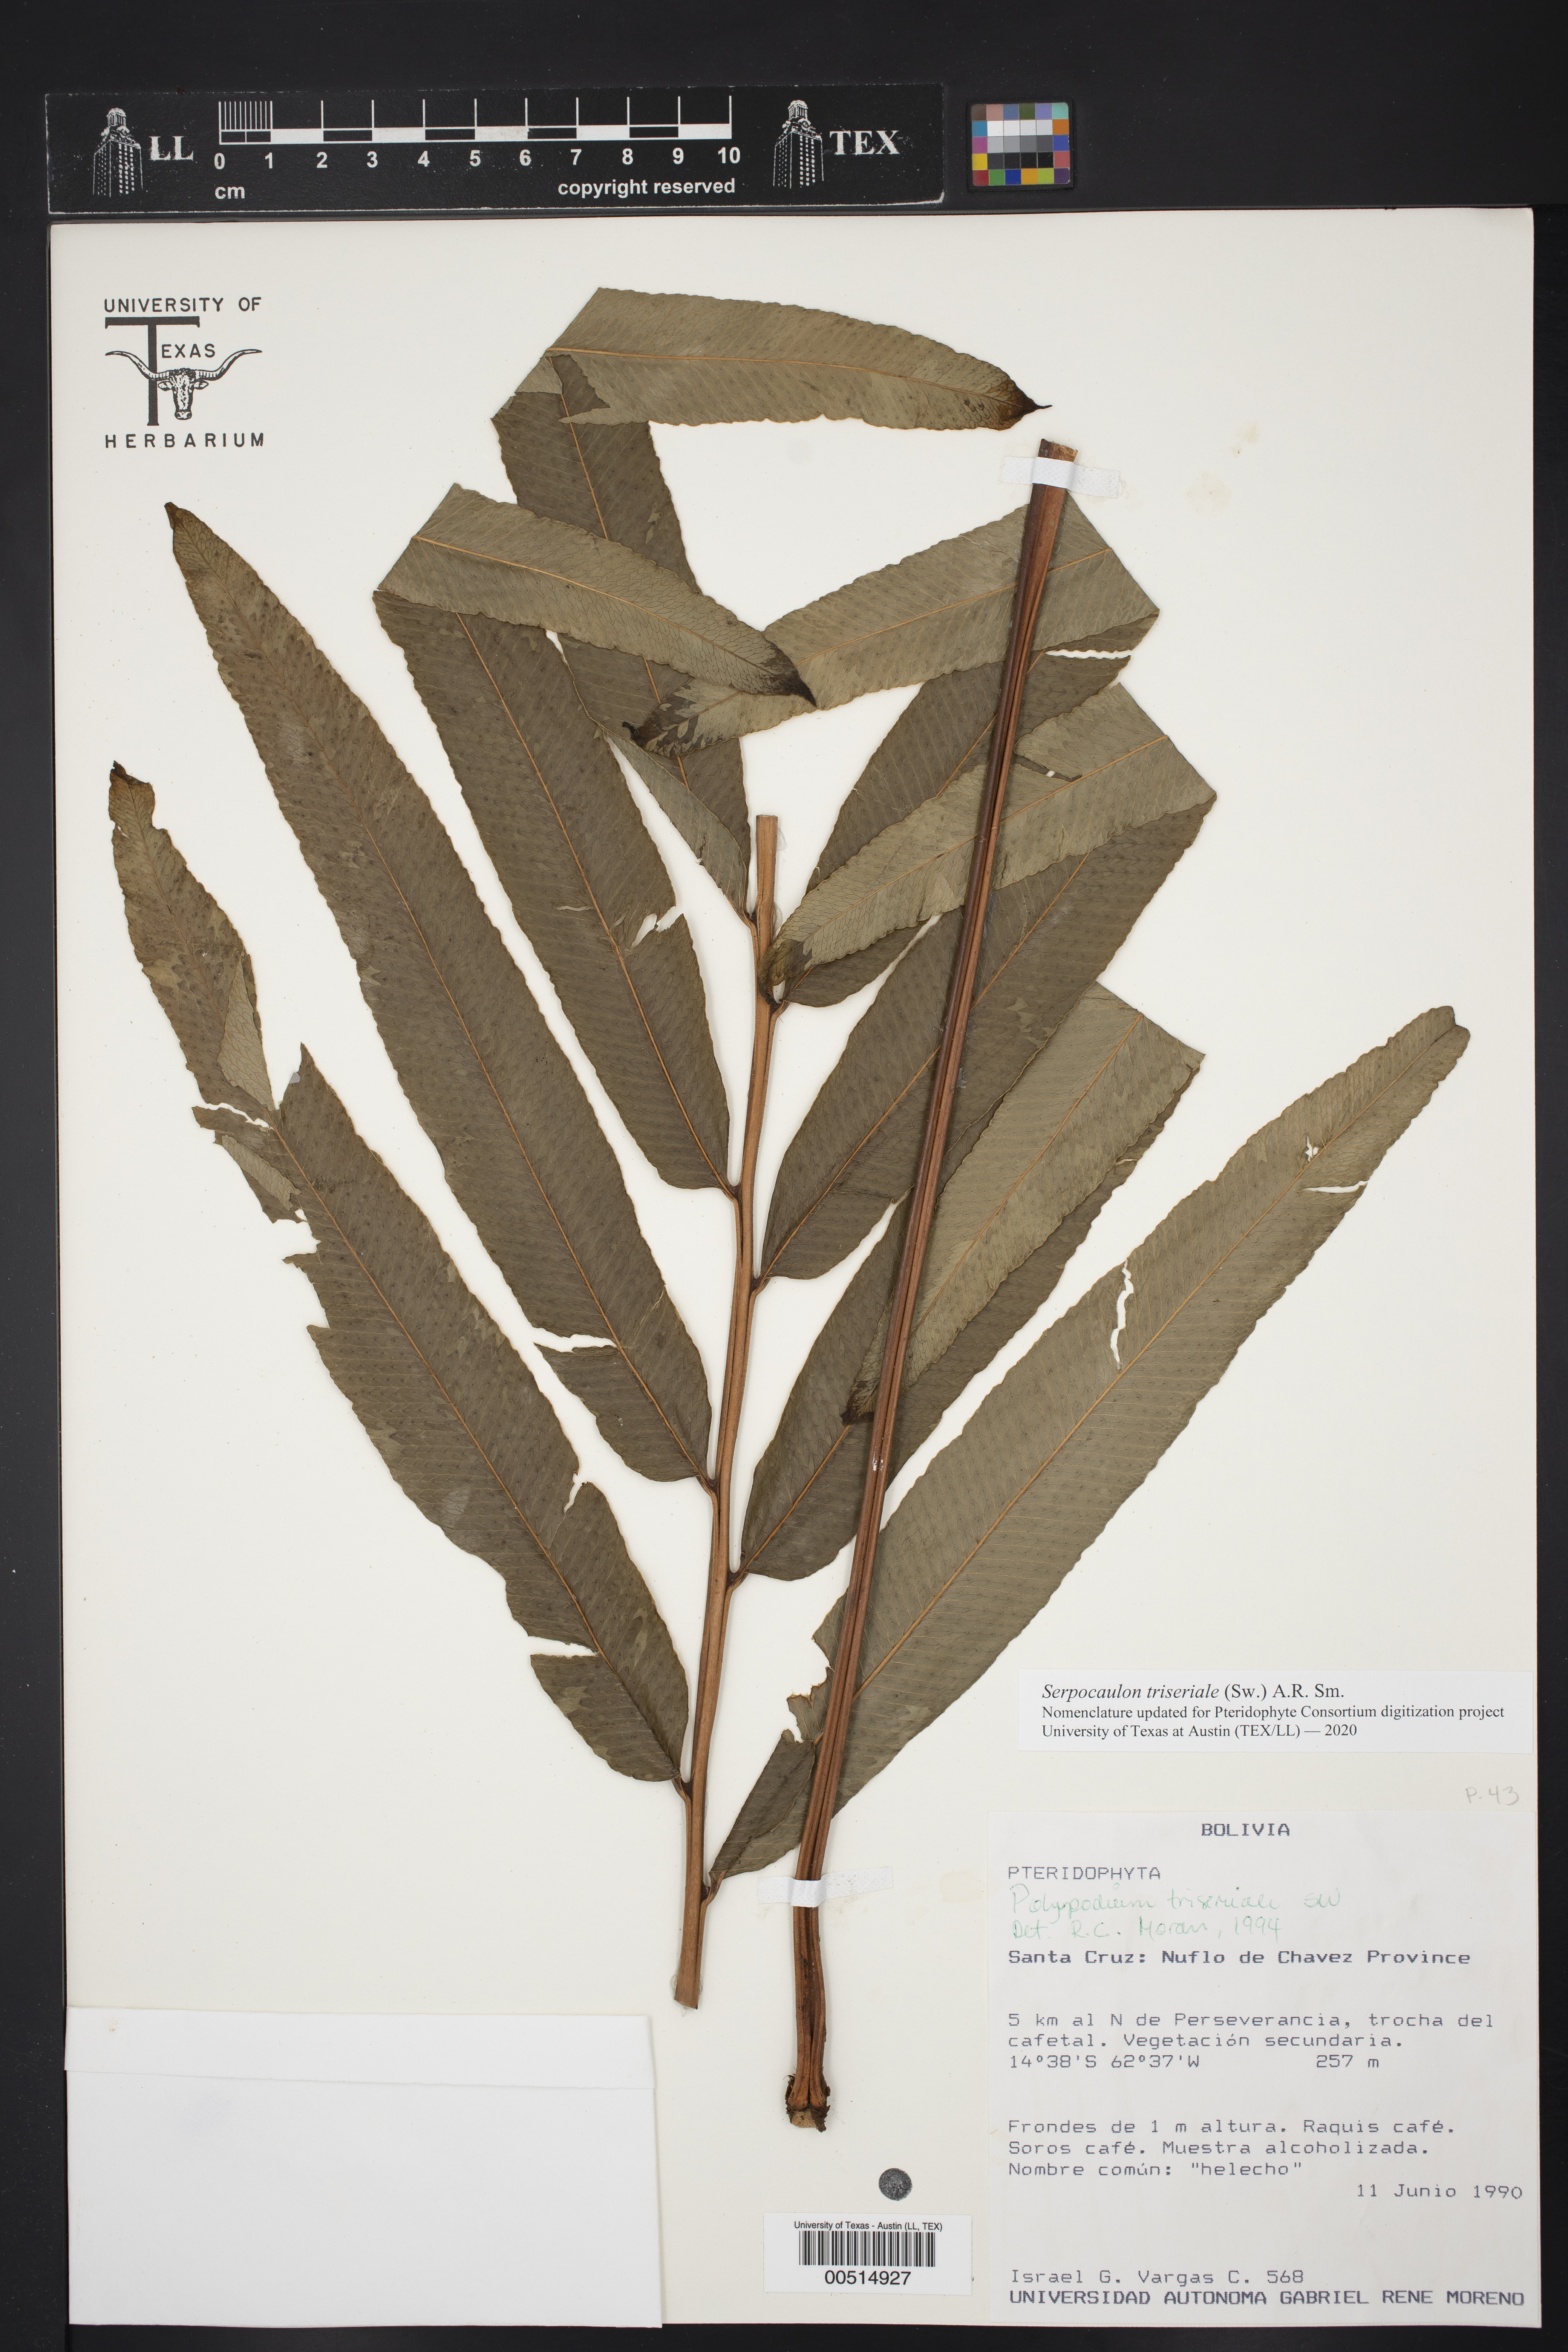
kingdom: Plantae
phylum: Tracheophyta
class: Polypodiopsida
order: Polypodiales
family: Polypodiaceae
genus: Serpocaulon
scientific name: Serpocaulon triseriale
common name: Angle-vein fern
